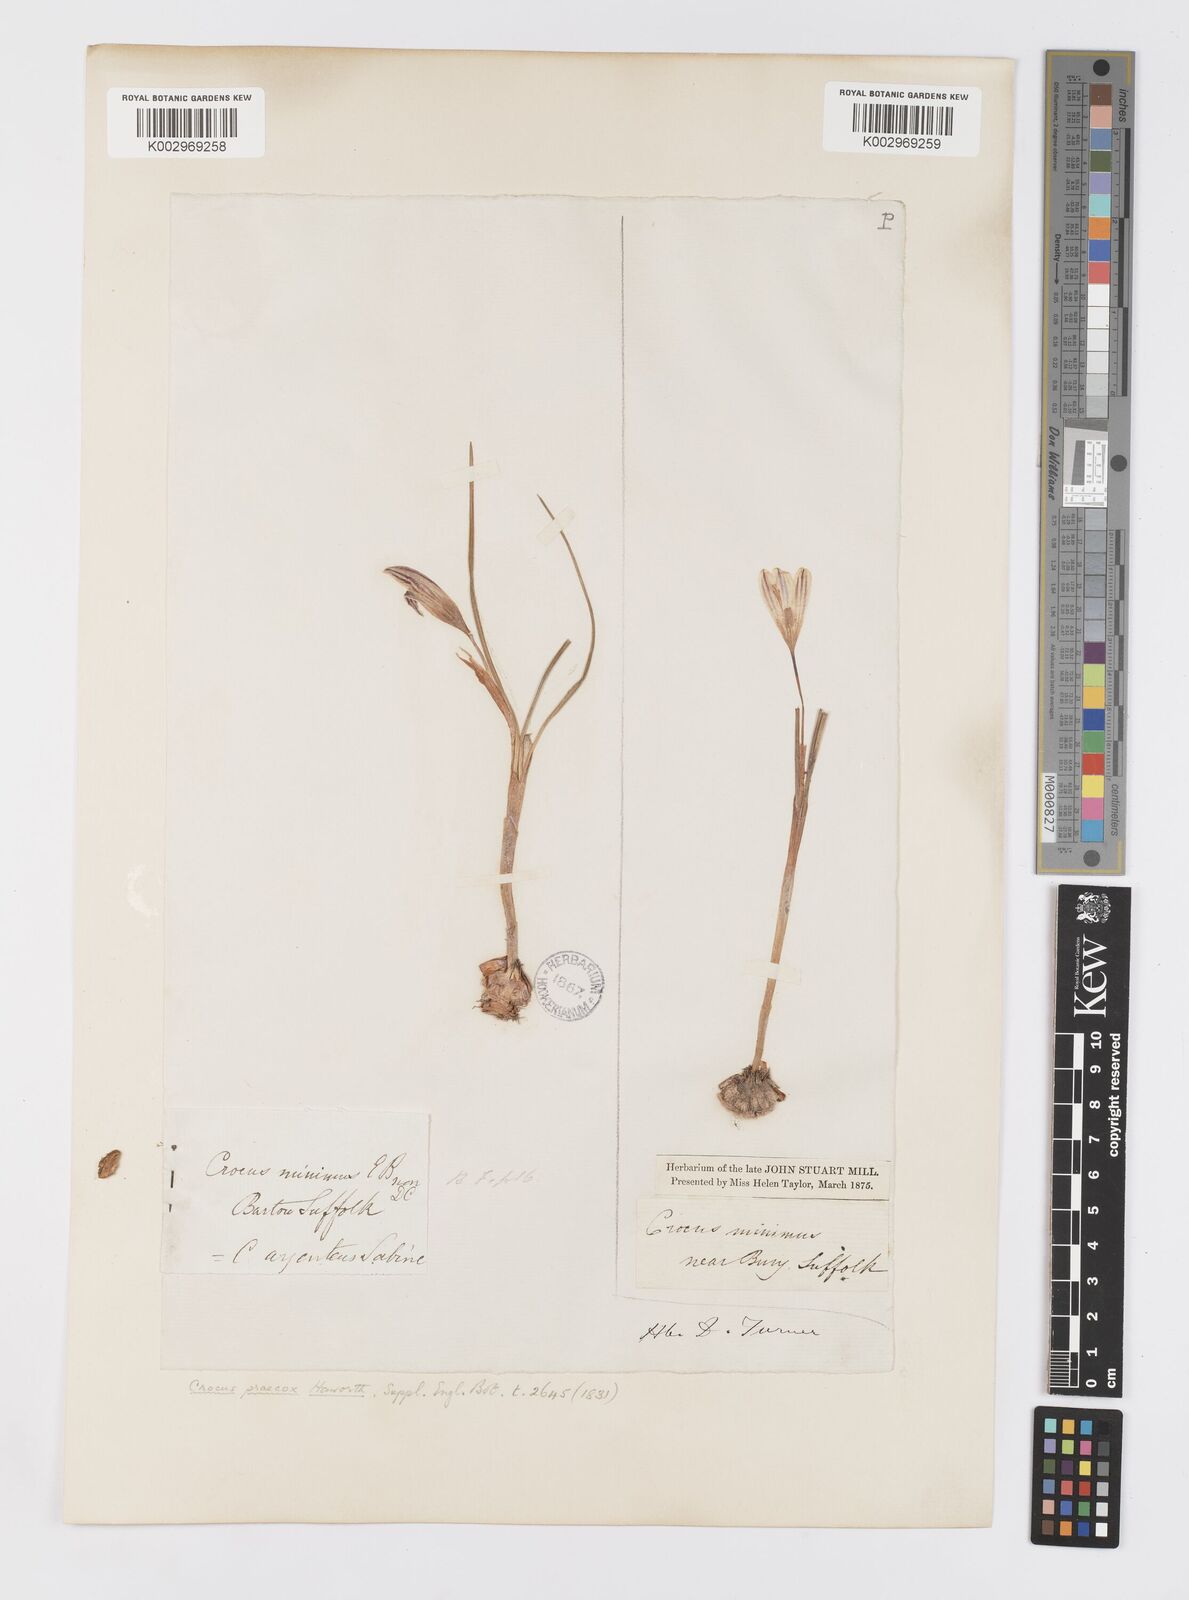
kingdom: Plantae
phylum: Tracheophyta
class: Liliopsida
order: Asparagales
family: Iridaceae
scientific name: Iridaceae
